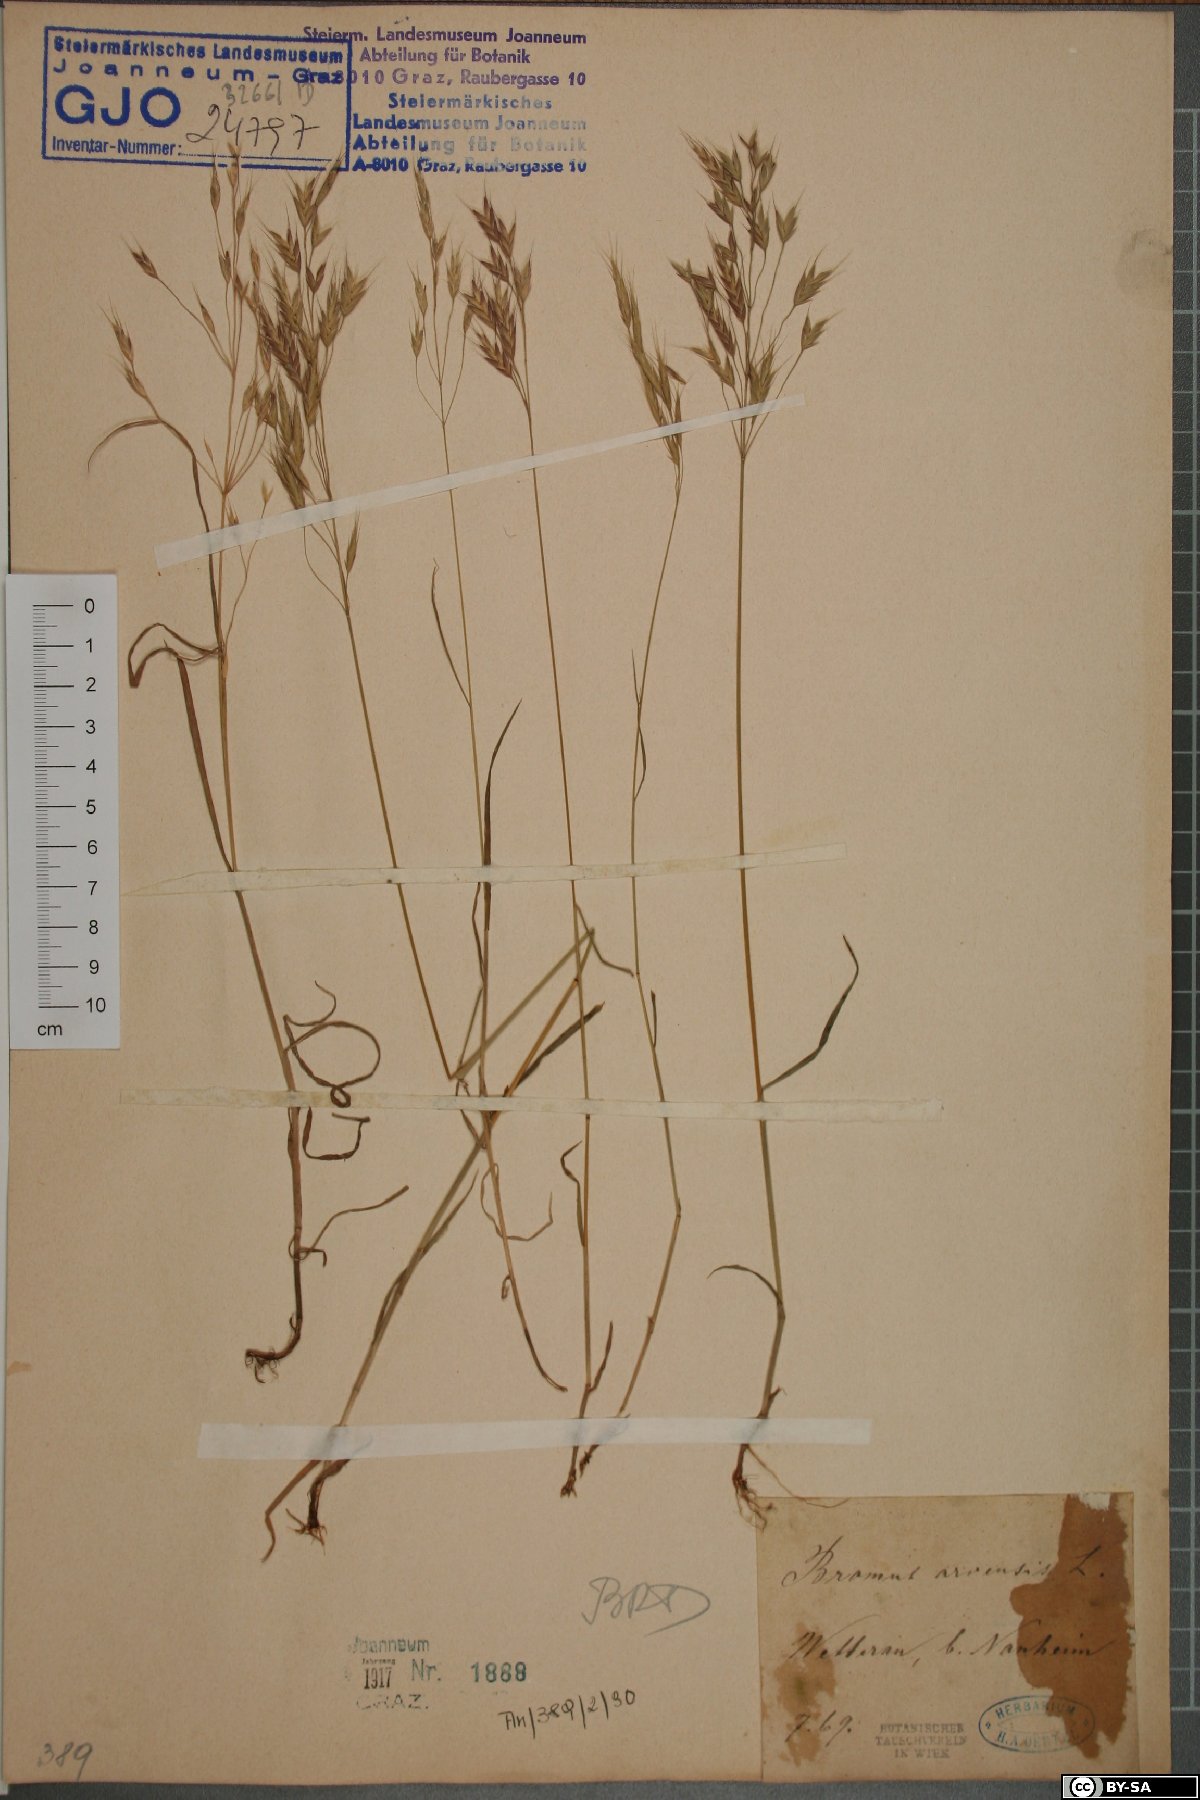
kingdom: Plantae
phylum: Tracheophyta
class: Liliopsida
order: Poales
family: Poaceae
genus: Bromus
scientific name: Bromus arvensis
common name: Field brome
